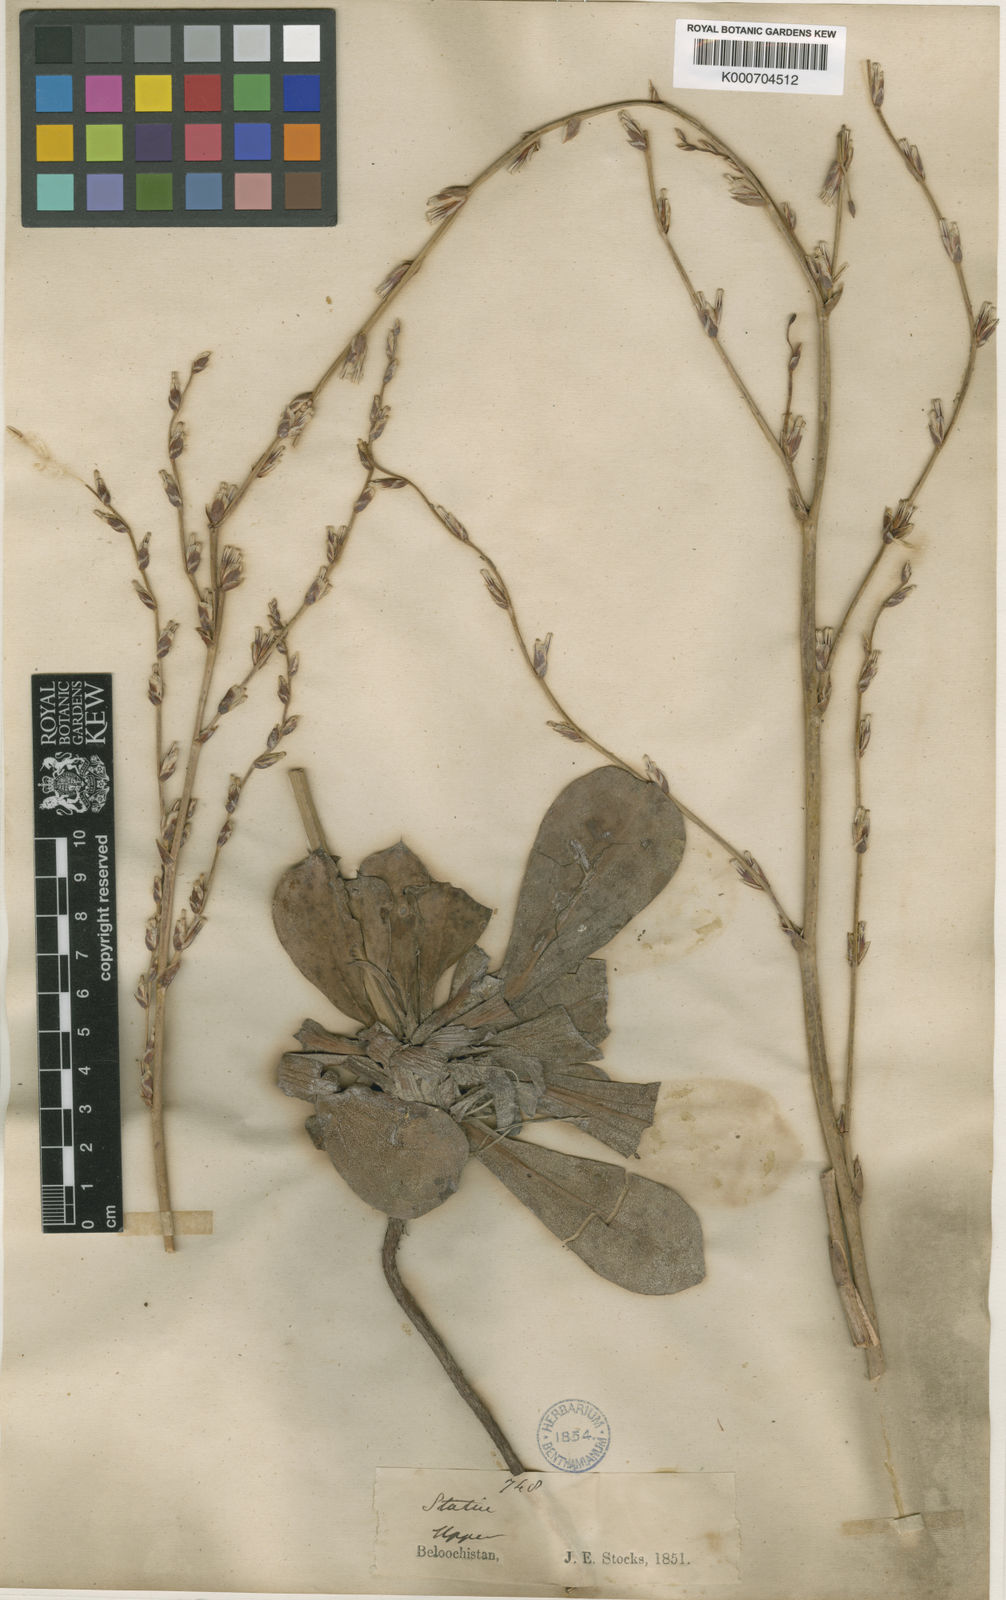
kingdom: Plantae
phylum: Tracheophyta
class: Magnoliopsida
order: Caryophyllales
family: Plumbaginaceae
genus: Dictyolimon
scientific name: Dictyolimon macrorrhabdos
